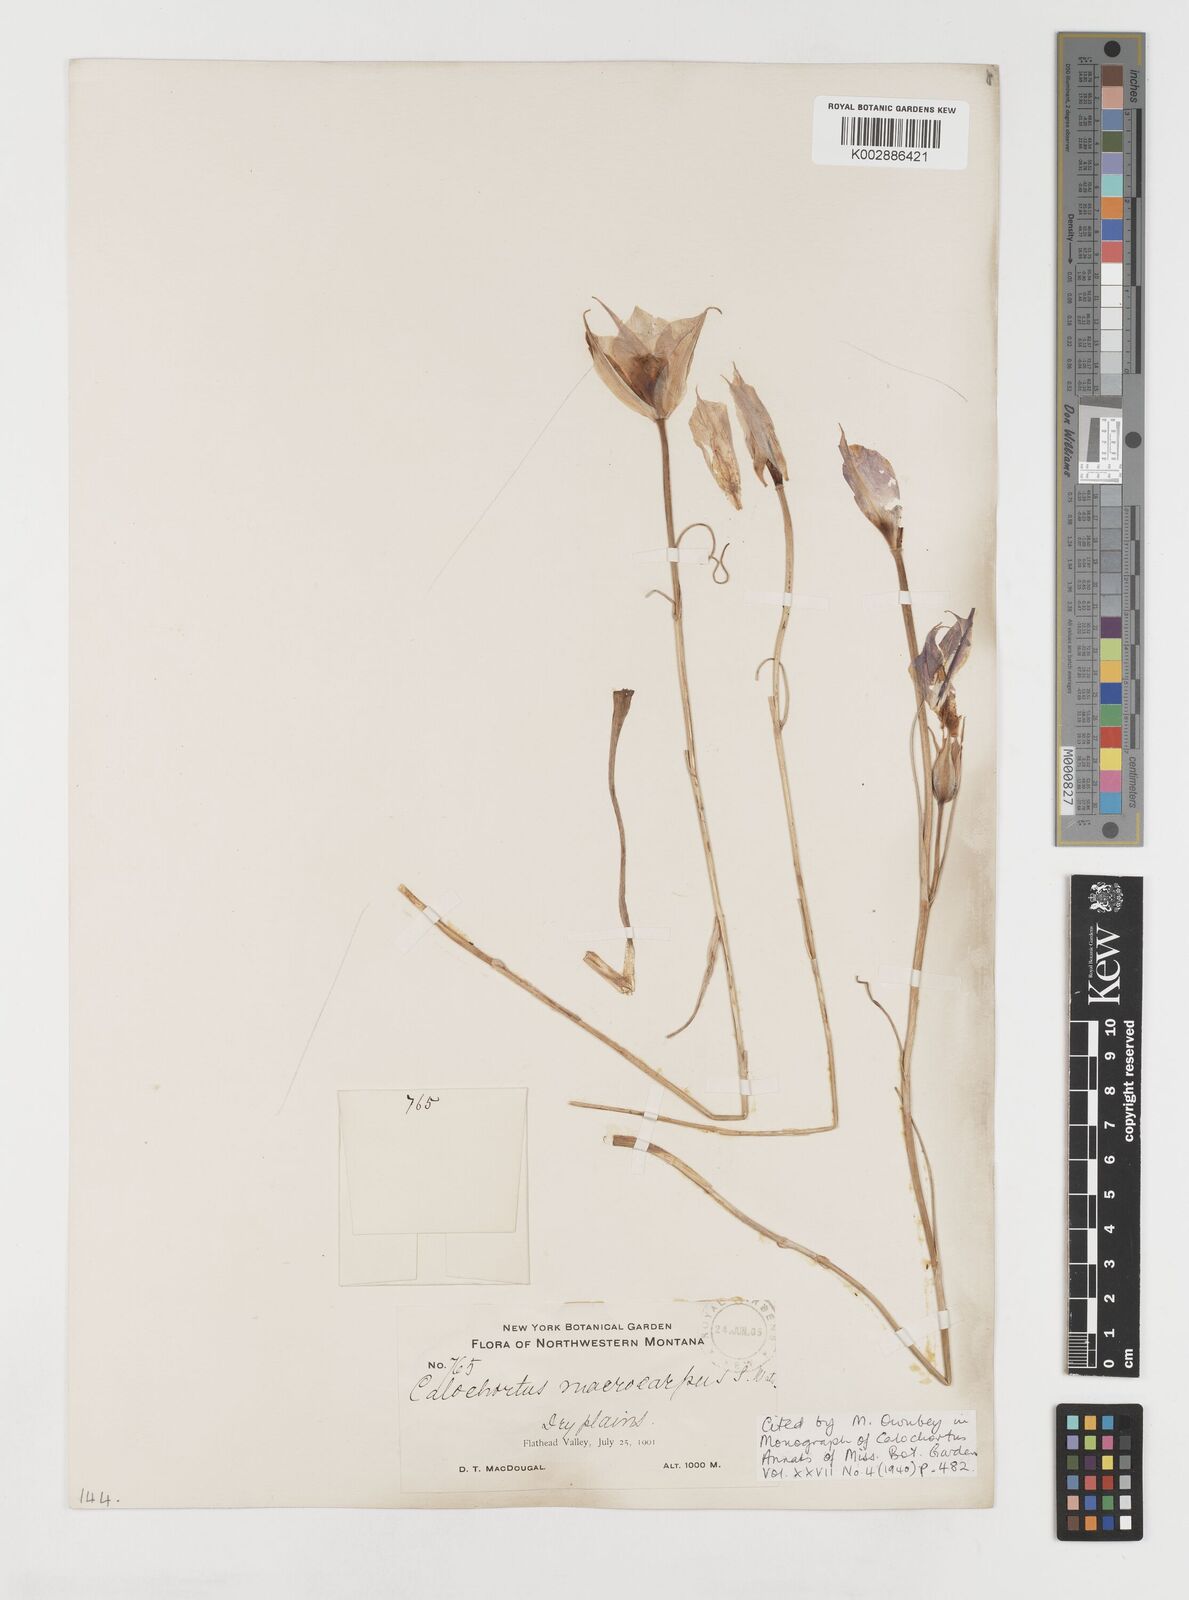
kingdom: Plantae
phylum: Tracheophyta
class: Liliopsida
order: Liliales
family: Liliaceae
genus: Calochortus
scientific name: Calochortus macrocarpus
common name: Green-band mariposa lily
